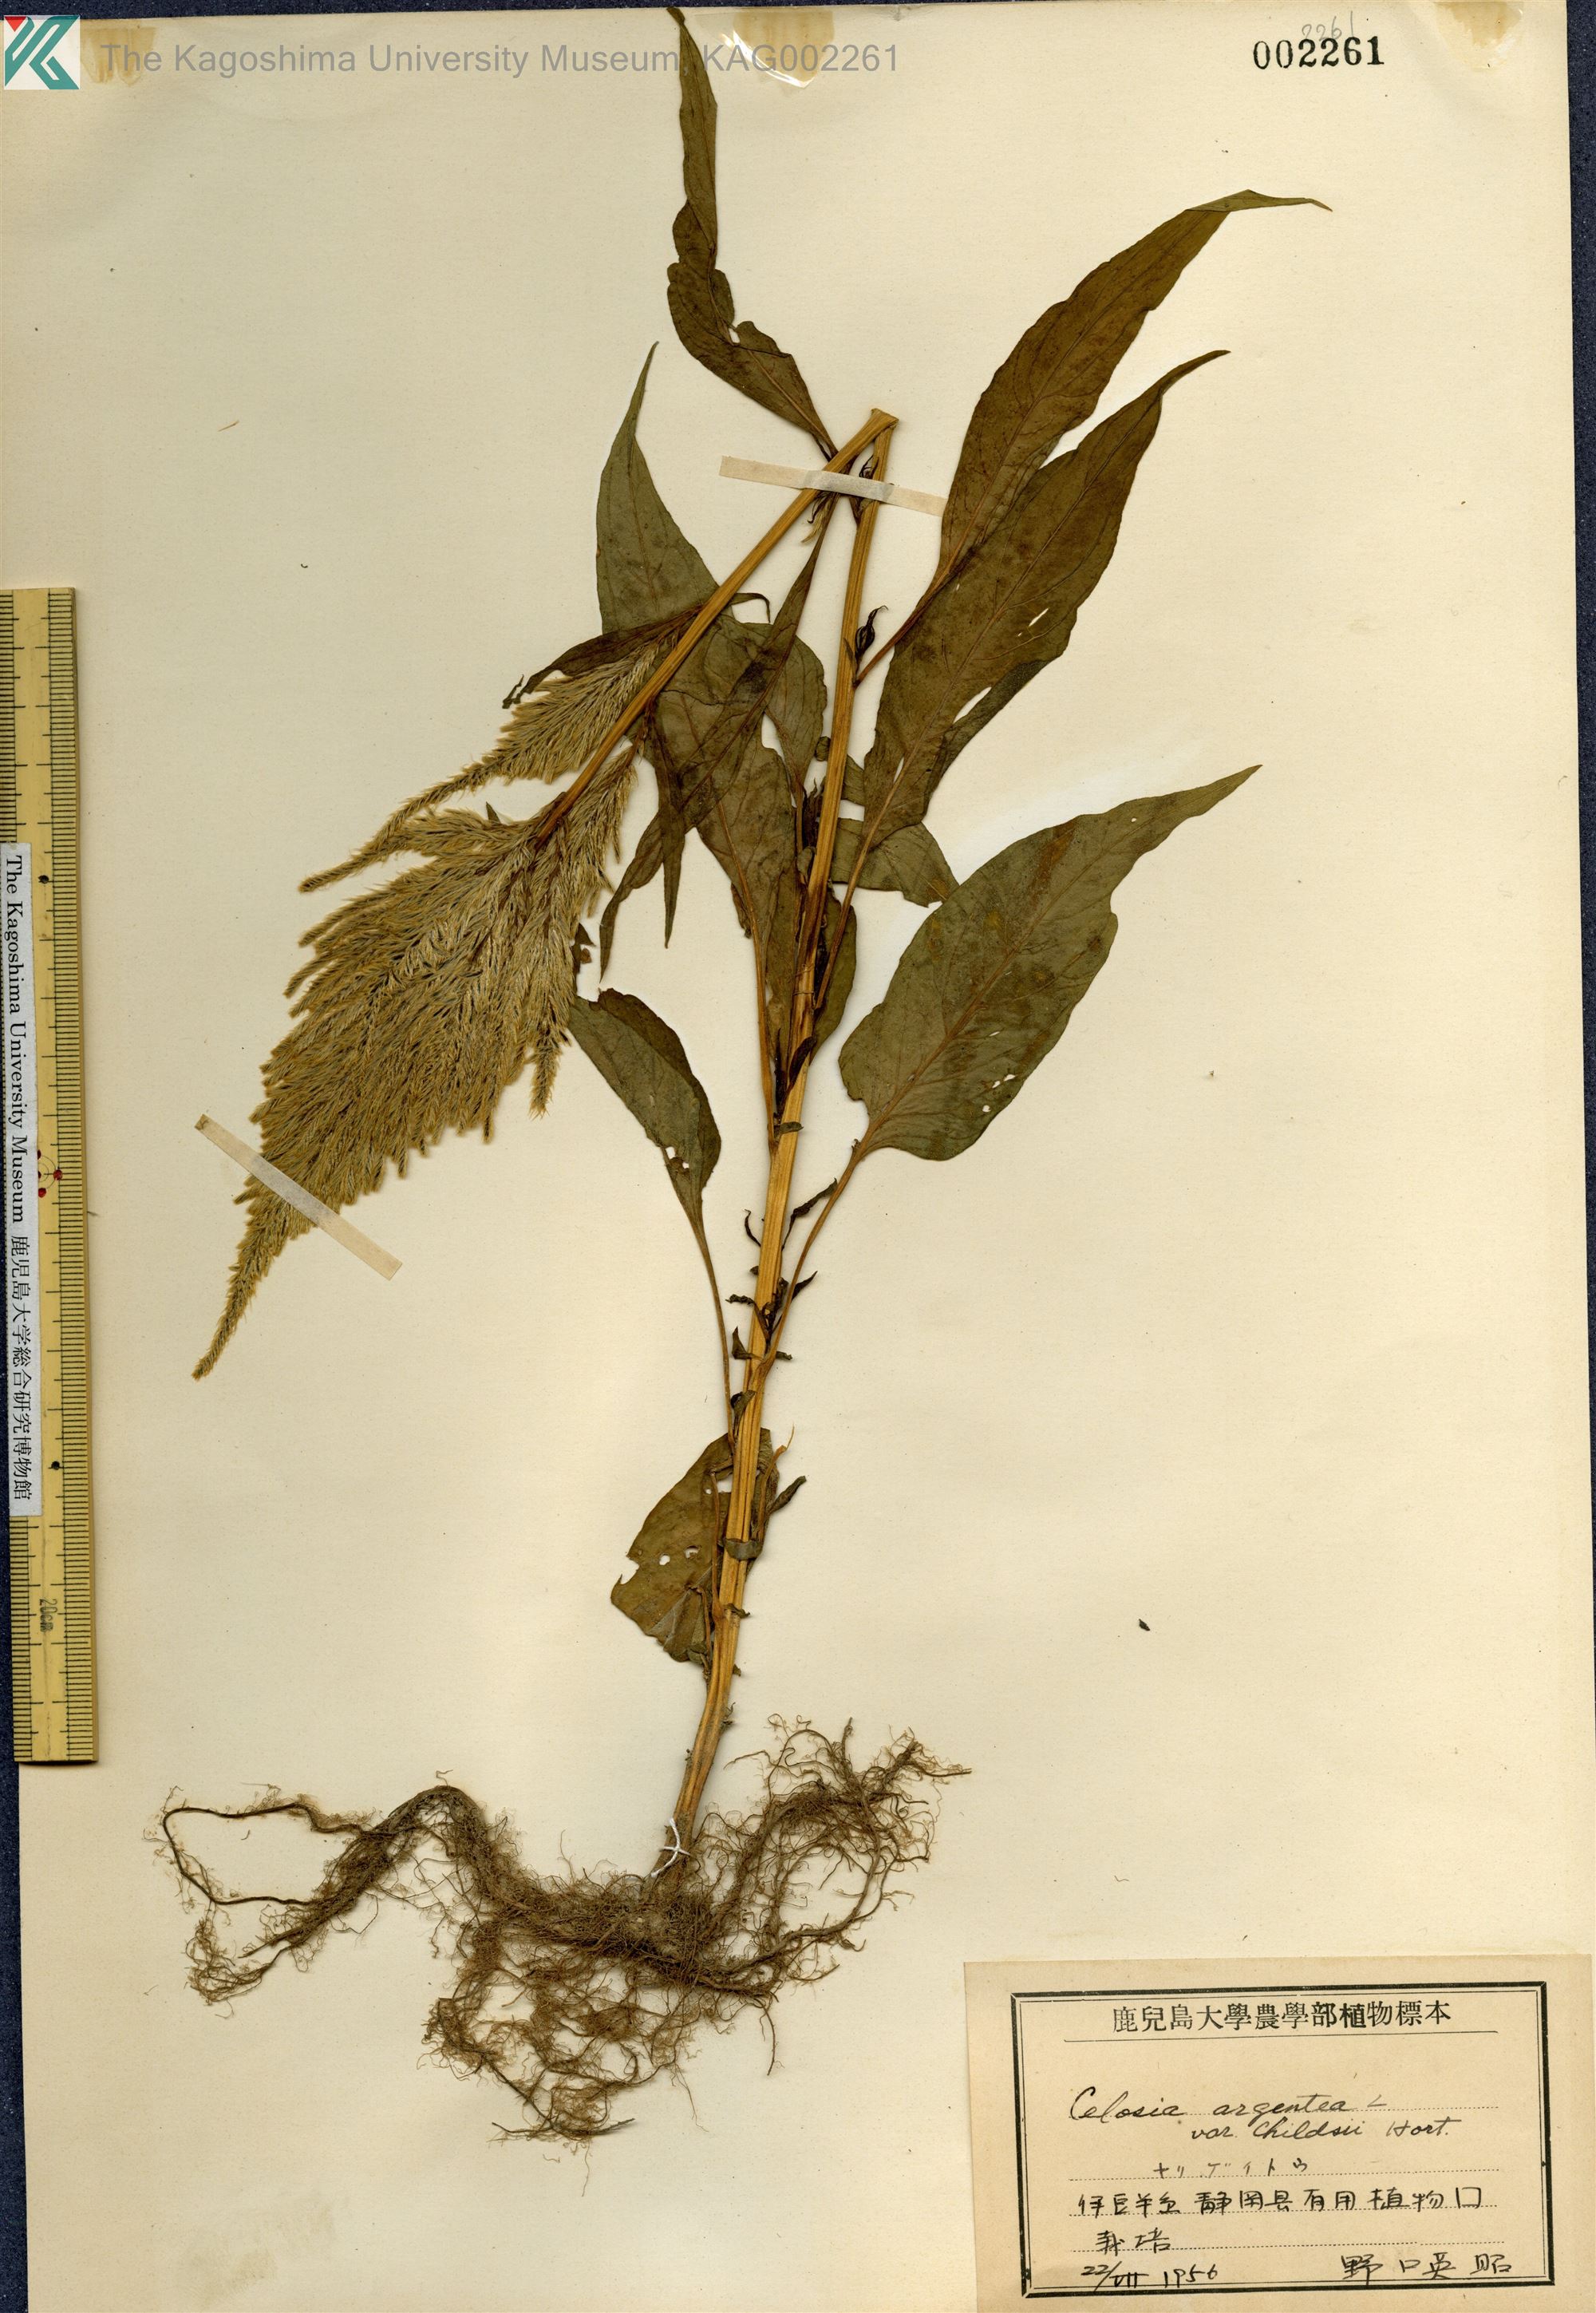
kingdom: Plantae
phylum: Tracheophyta
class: Magnoliopsida
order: Caryophyllales
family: Amaranthaceae
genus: Celosia
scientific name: Celosia argentea
